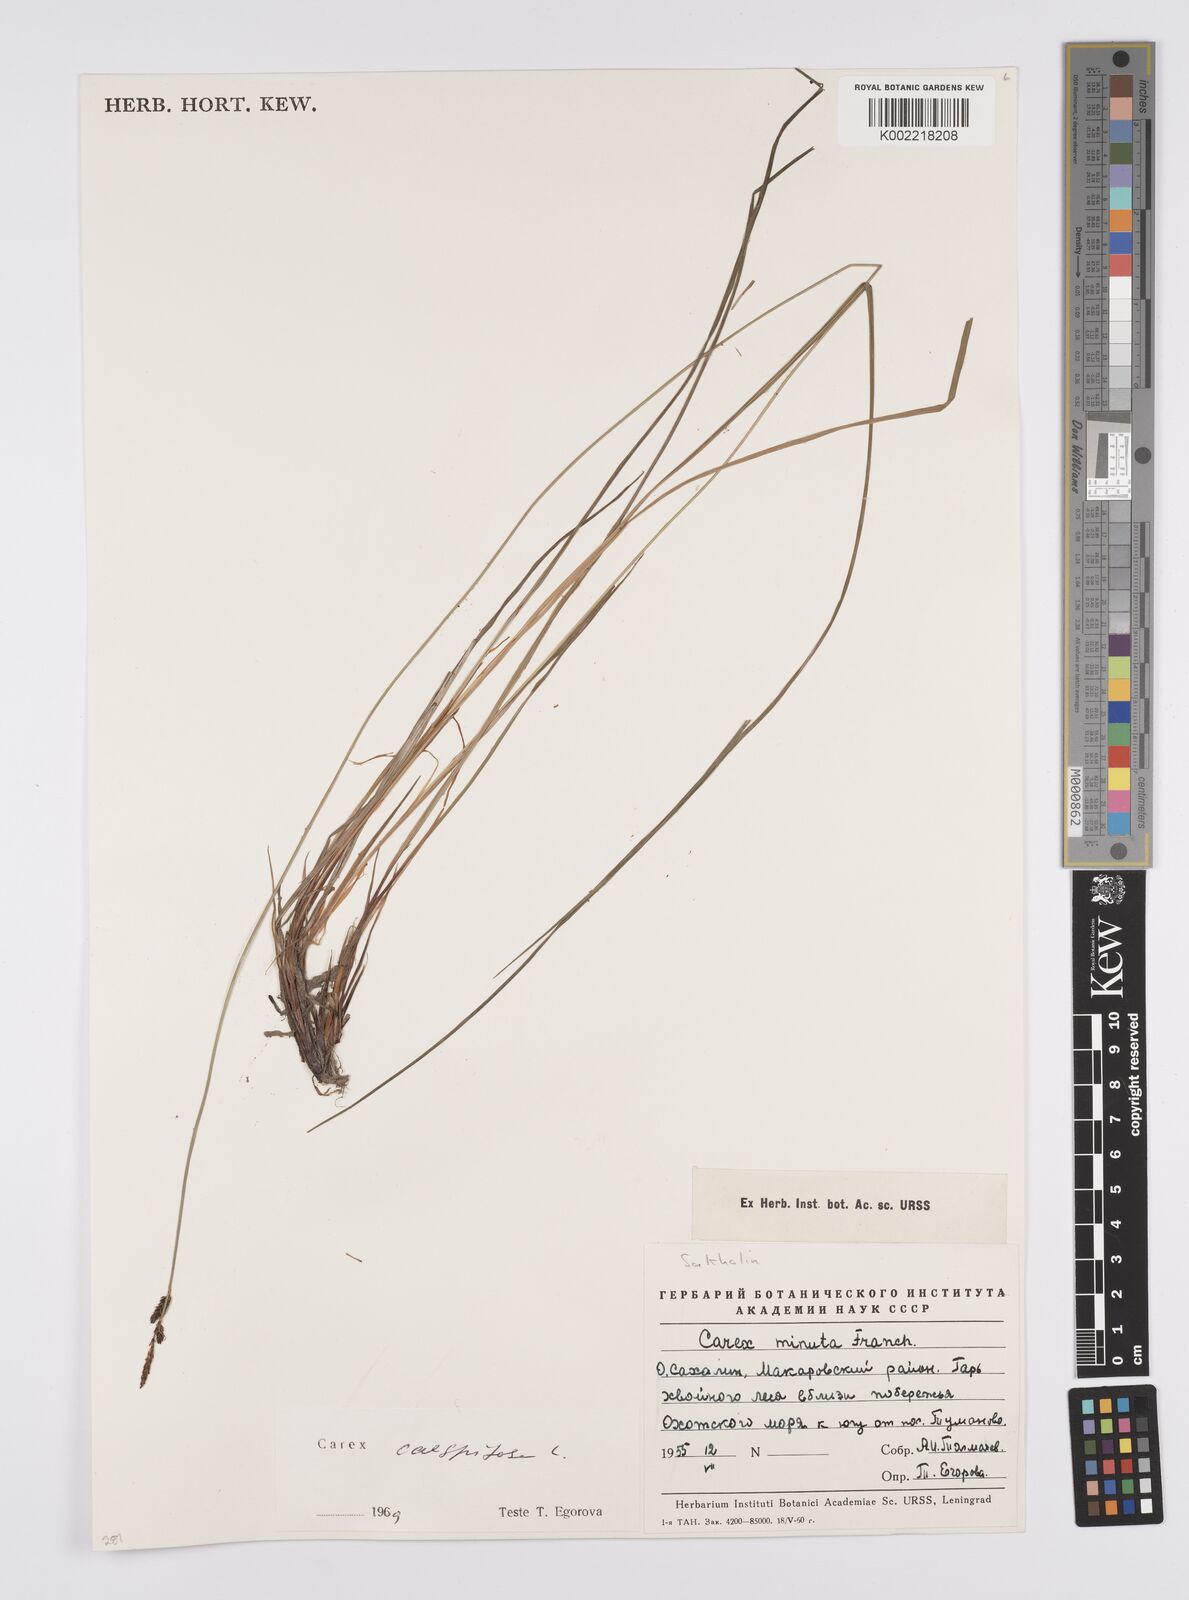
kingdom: Plantae
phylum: Tracheophyta
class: Liliopsida
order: Poales
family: Cyperaceae
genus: Carex
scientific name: Carex
